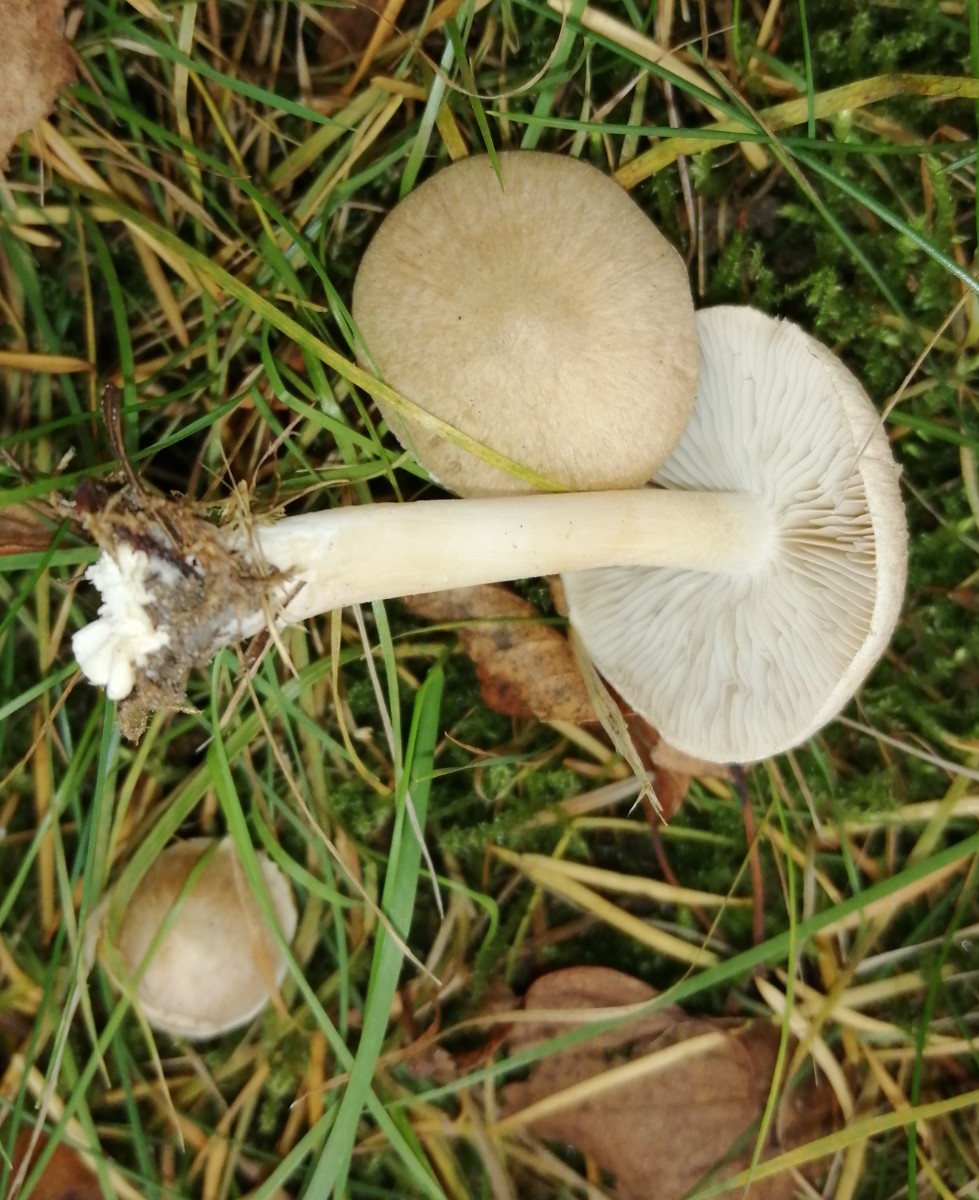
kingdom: Fungi
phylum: Basidiomycota
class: Agaricomycetes
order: Agaricales
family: Omphalotaceae
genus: Rhodocollybia
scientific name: Rhodocollybia maculata
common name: plettet fladhat
